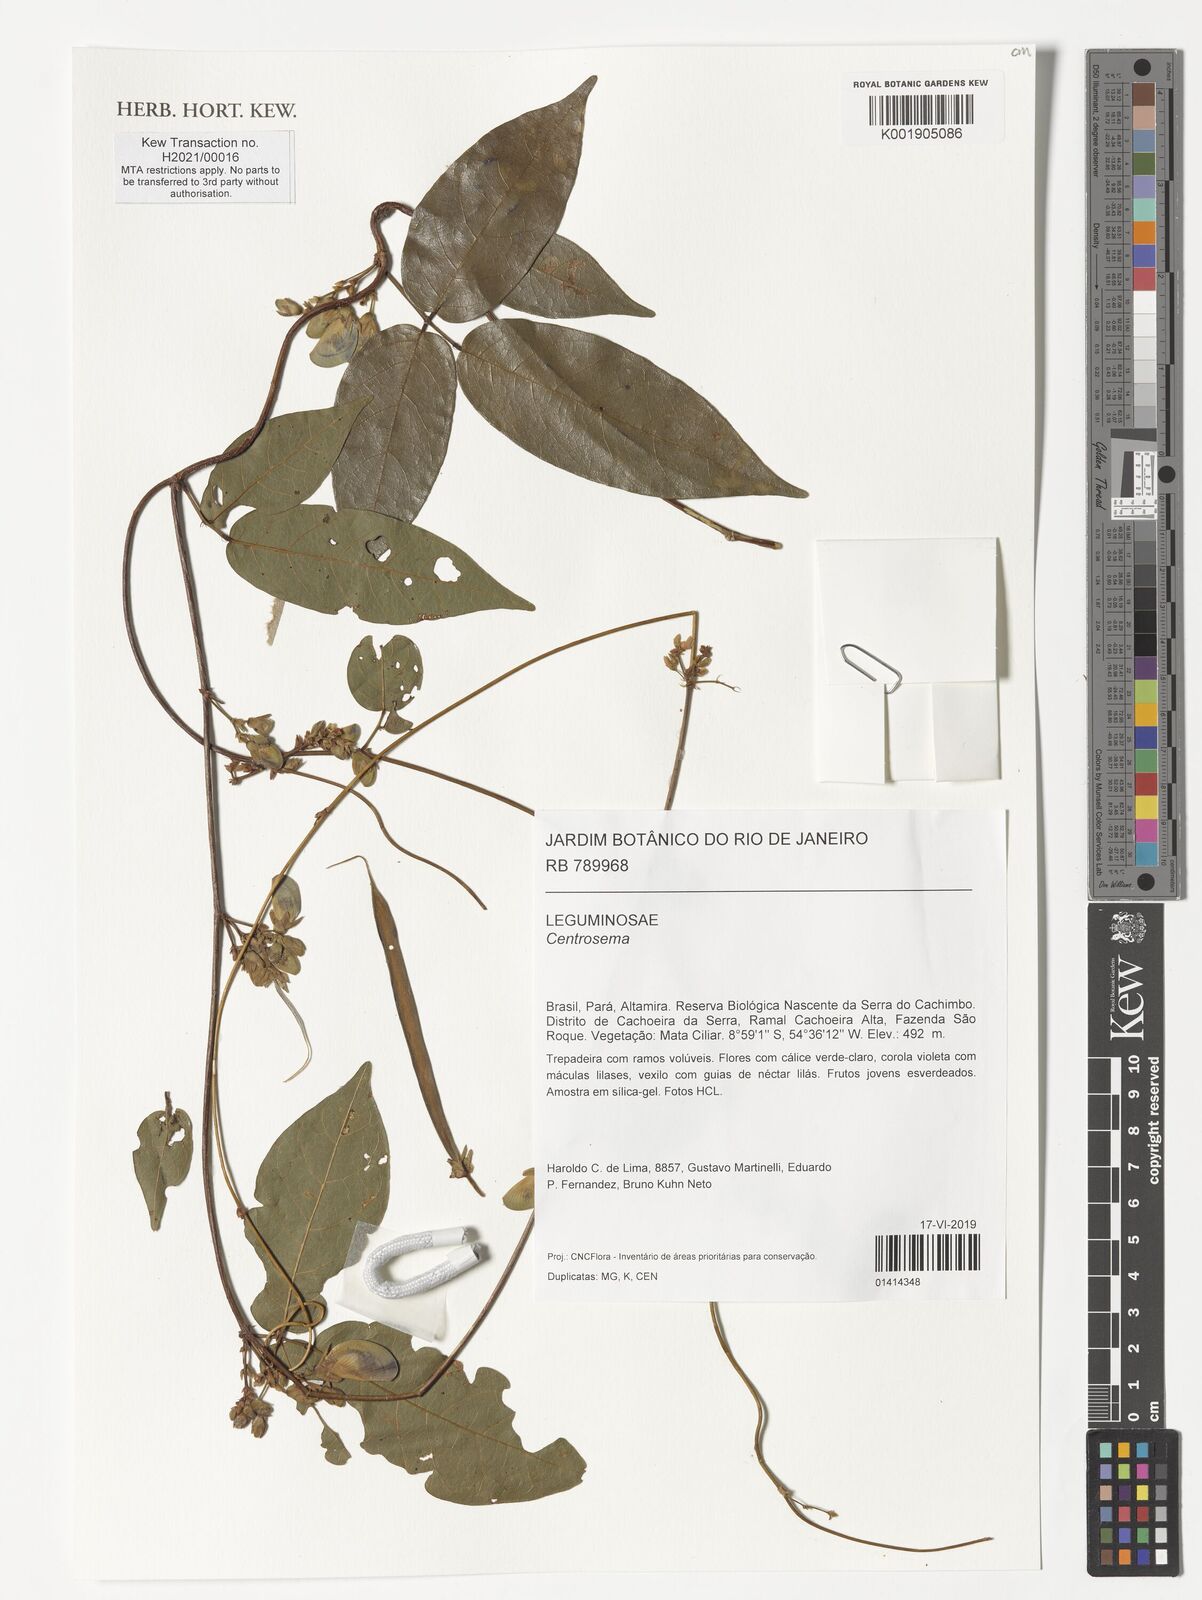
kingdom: Plantae
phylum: Tracheophyta
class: Magnoliopsida
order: Fabales
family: Fabaceae
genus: Centrosema
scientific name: Centrosema
